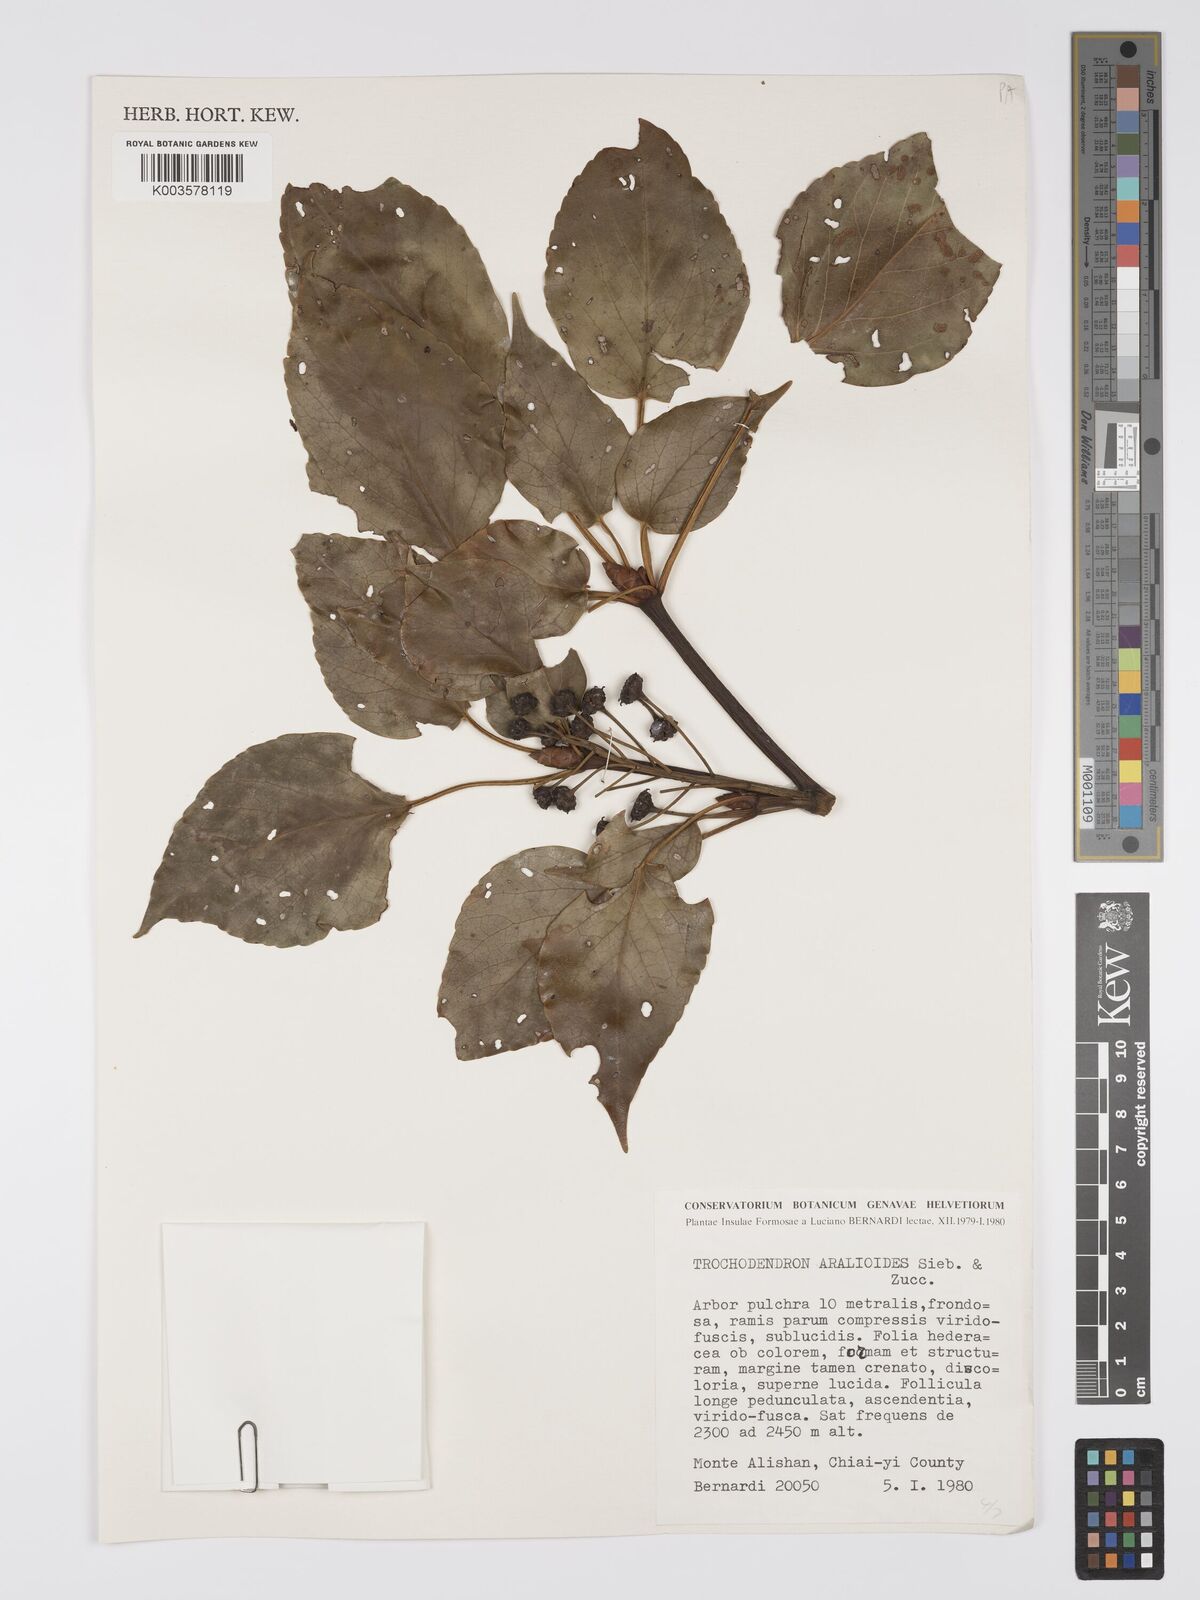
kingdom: Plantae
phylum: Tracheophyta
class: Magnoliopsida
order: Trochodendrales
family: Trochodendraceae
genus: Trochodendron
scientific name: Trochodendron aralioides
